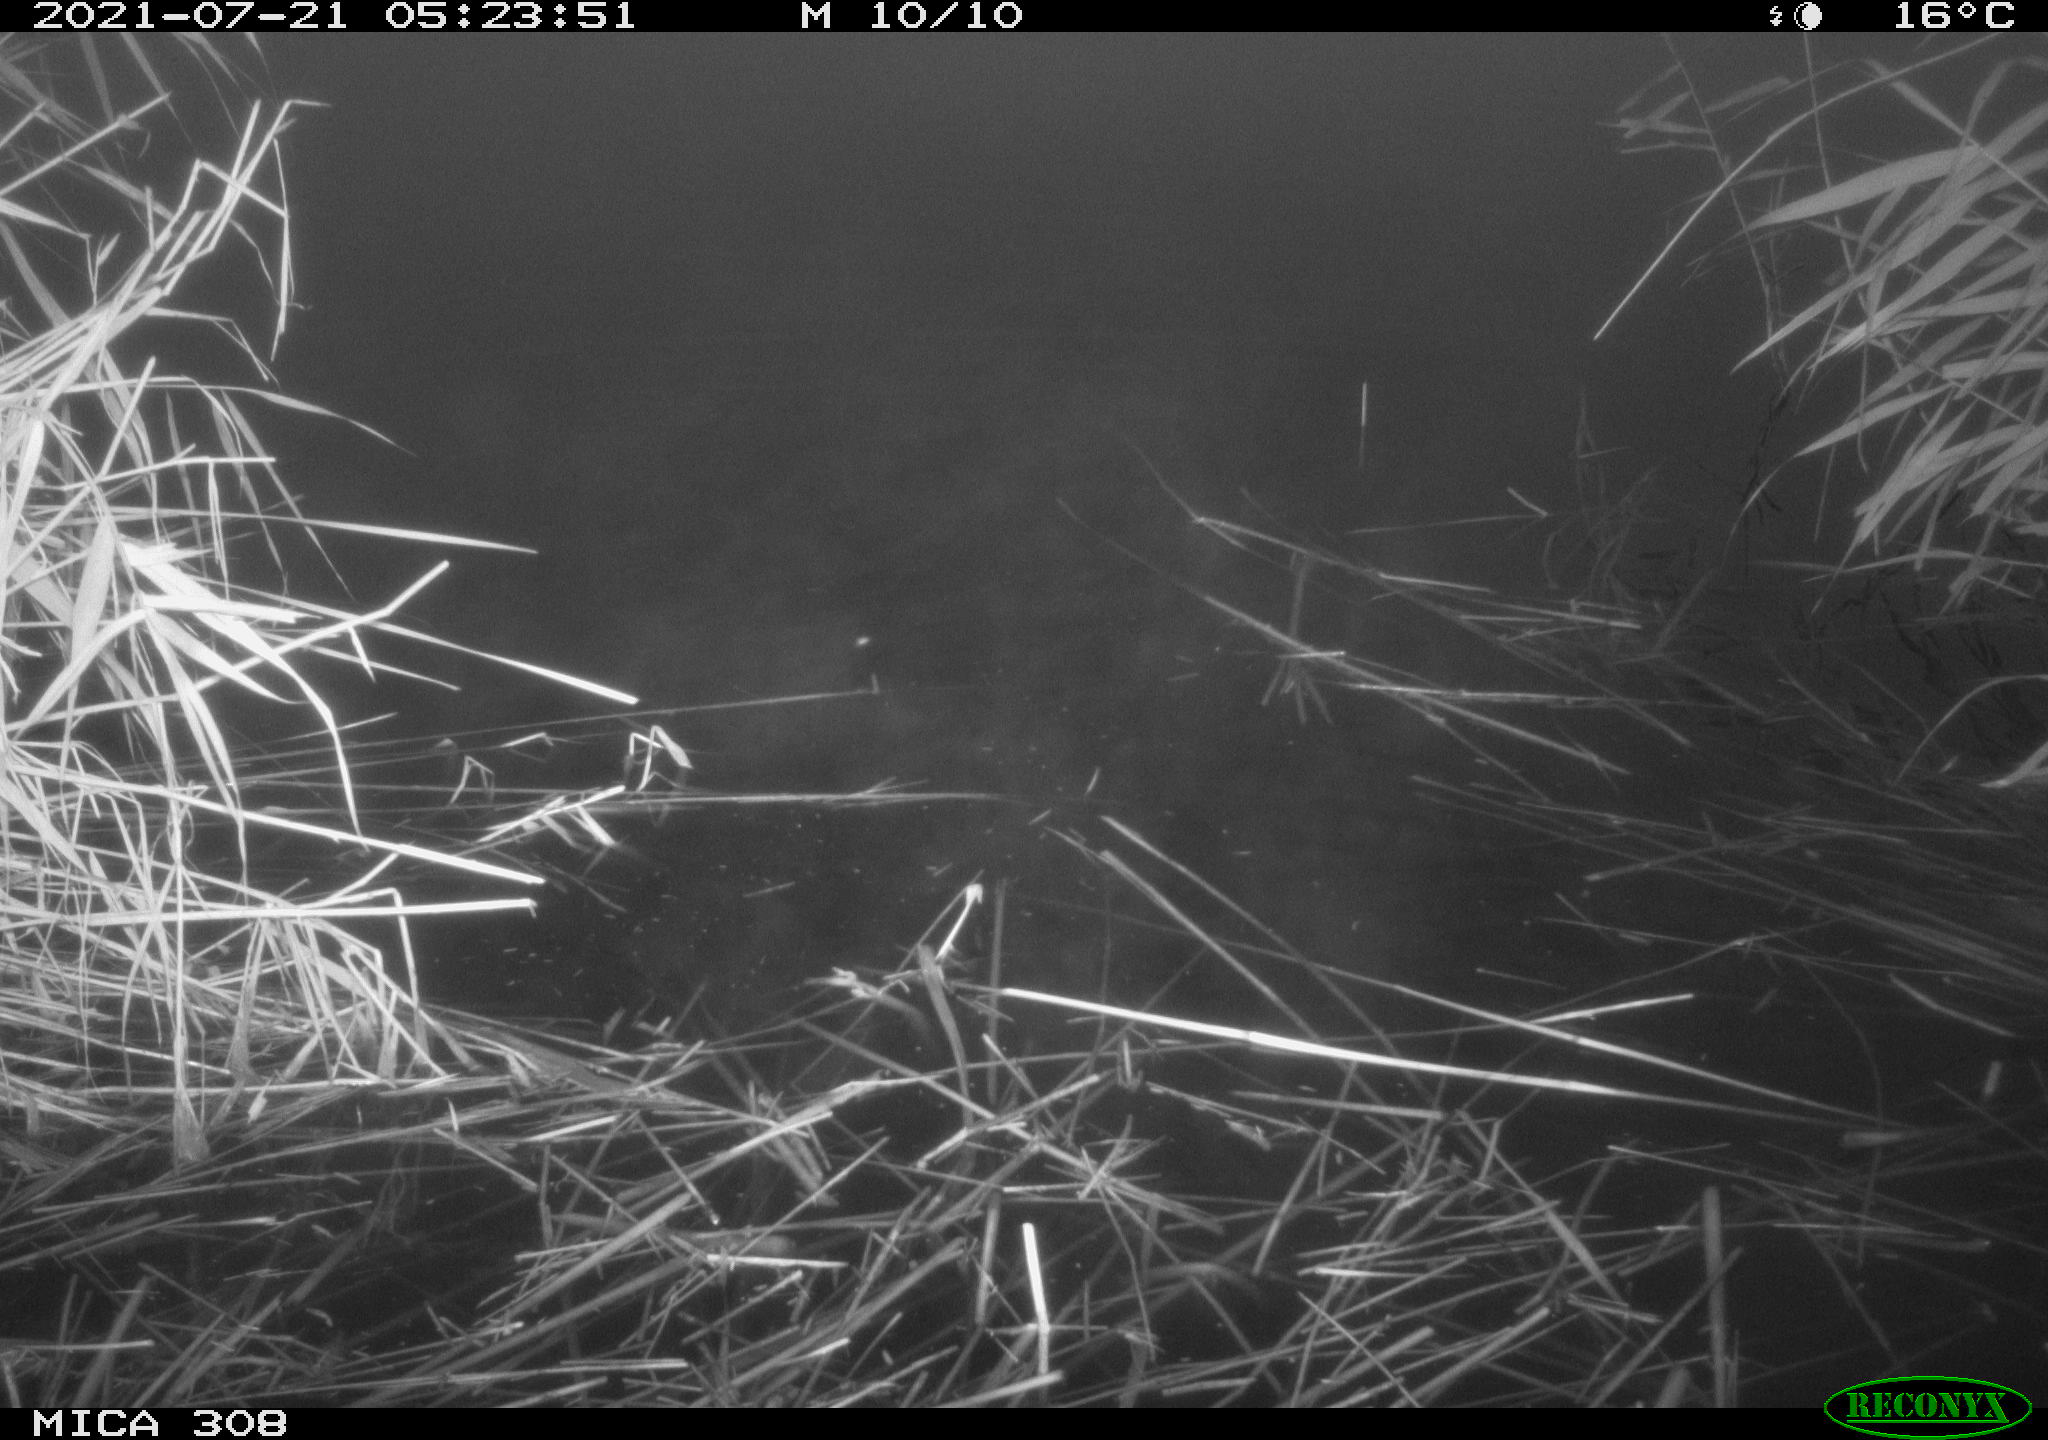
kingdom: Animalia
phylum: Chordata
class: Aves
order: Gruiformes
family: Rallidae
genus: Gallinula
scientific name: Gallinula chloropus
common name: Common moorhen
